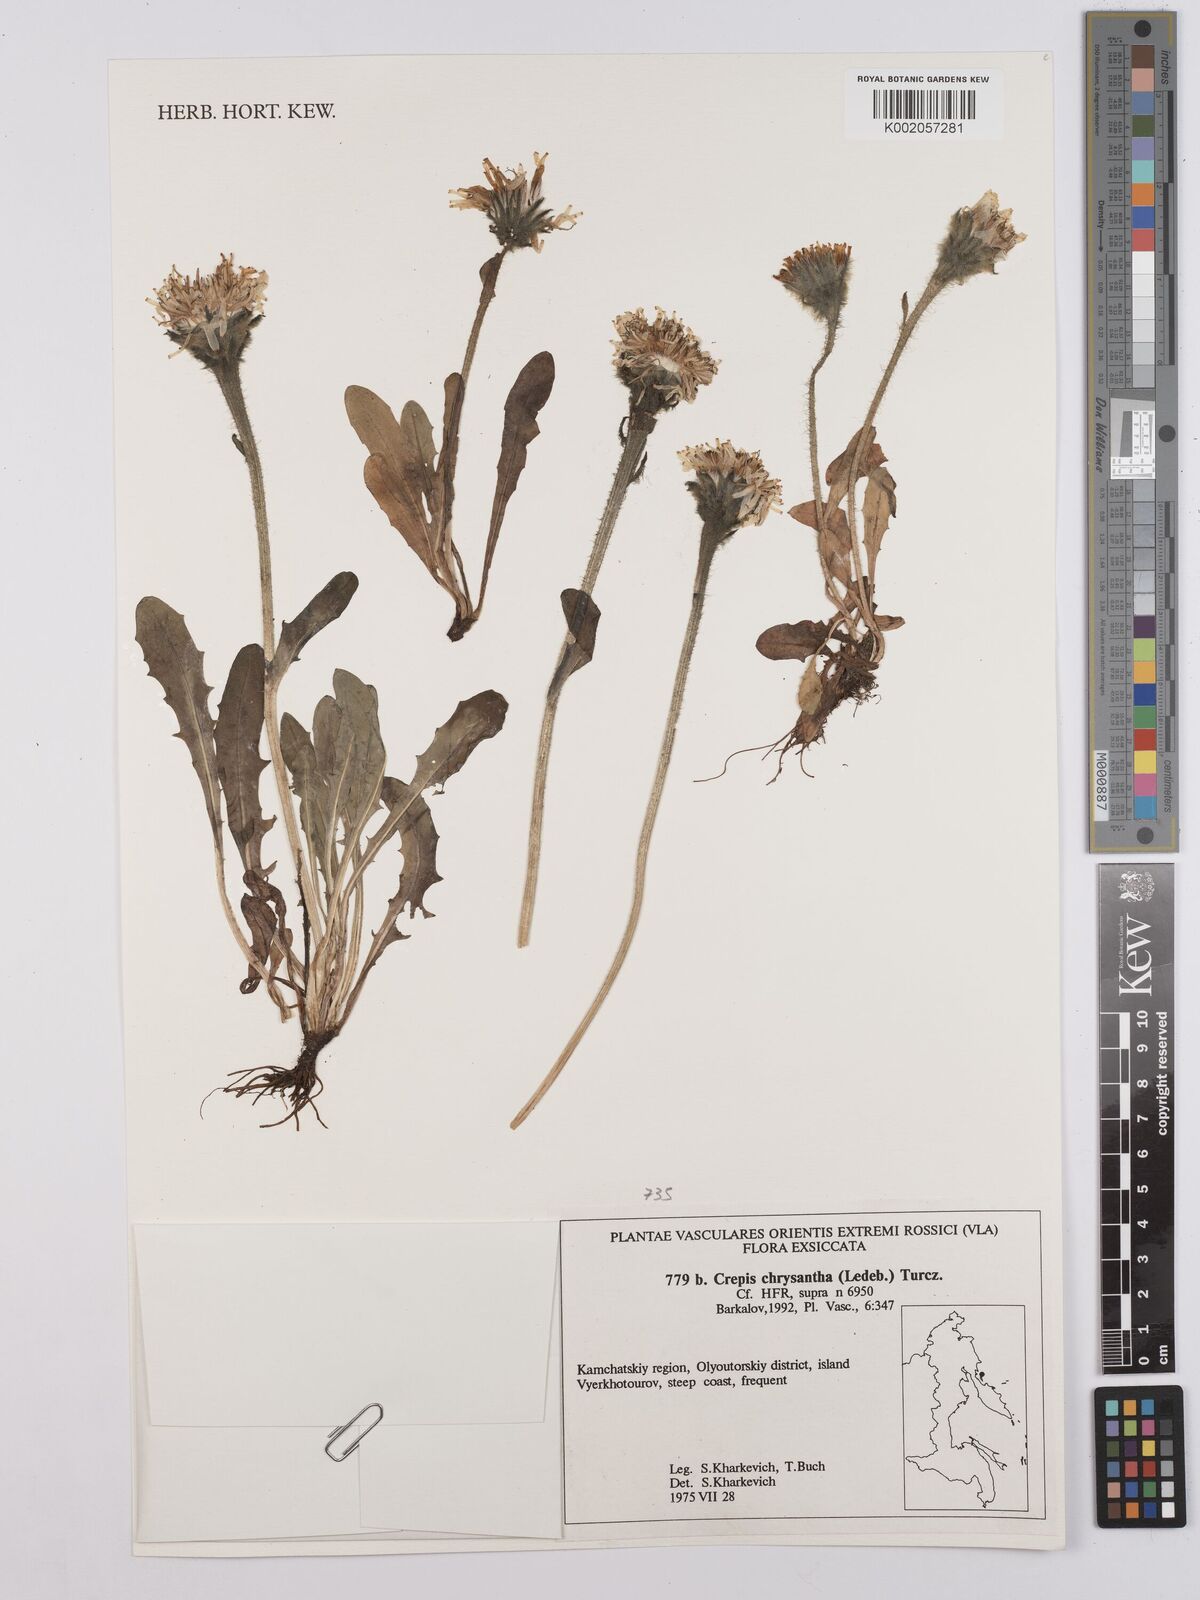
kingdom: Plantae
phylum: Tracheophyta
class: Magnoliopsida
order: Asterales
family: Asteraceae
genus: Crepis
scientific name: Crepis chrysantha
